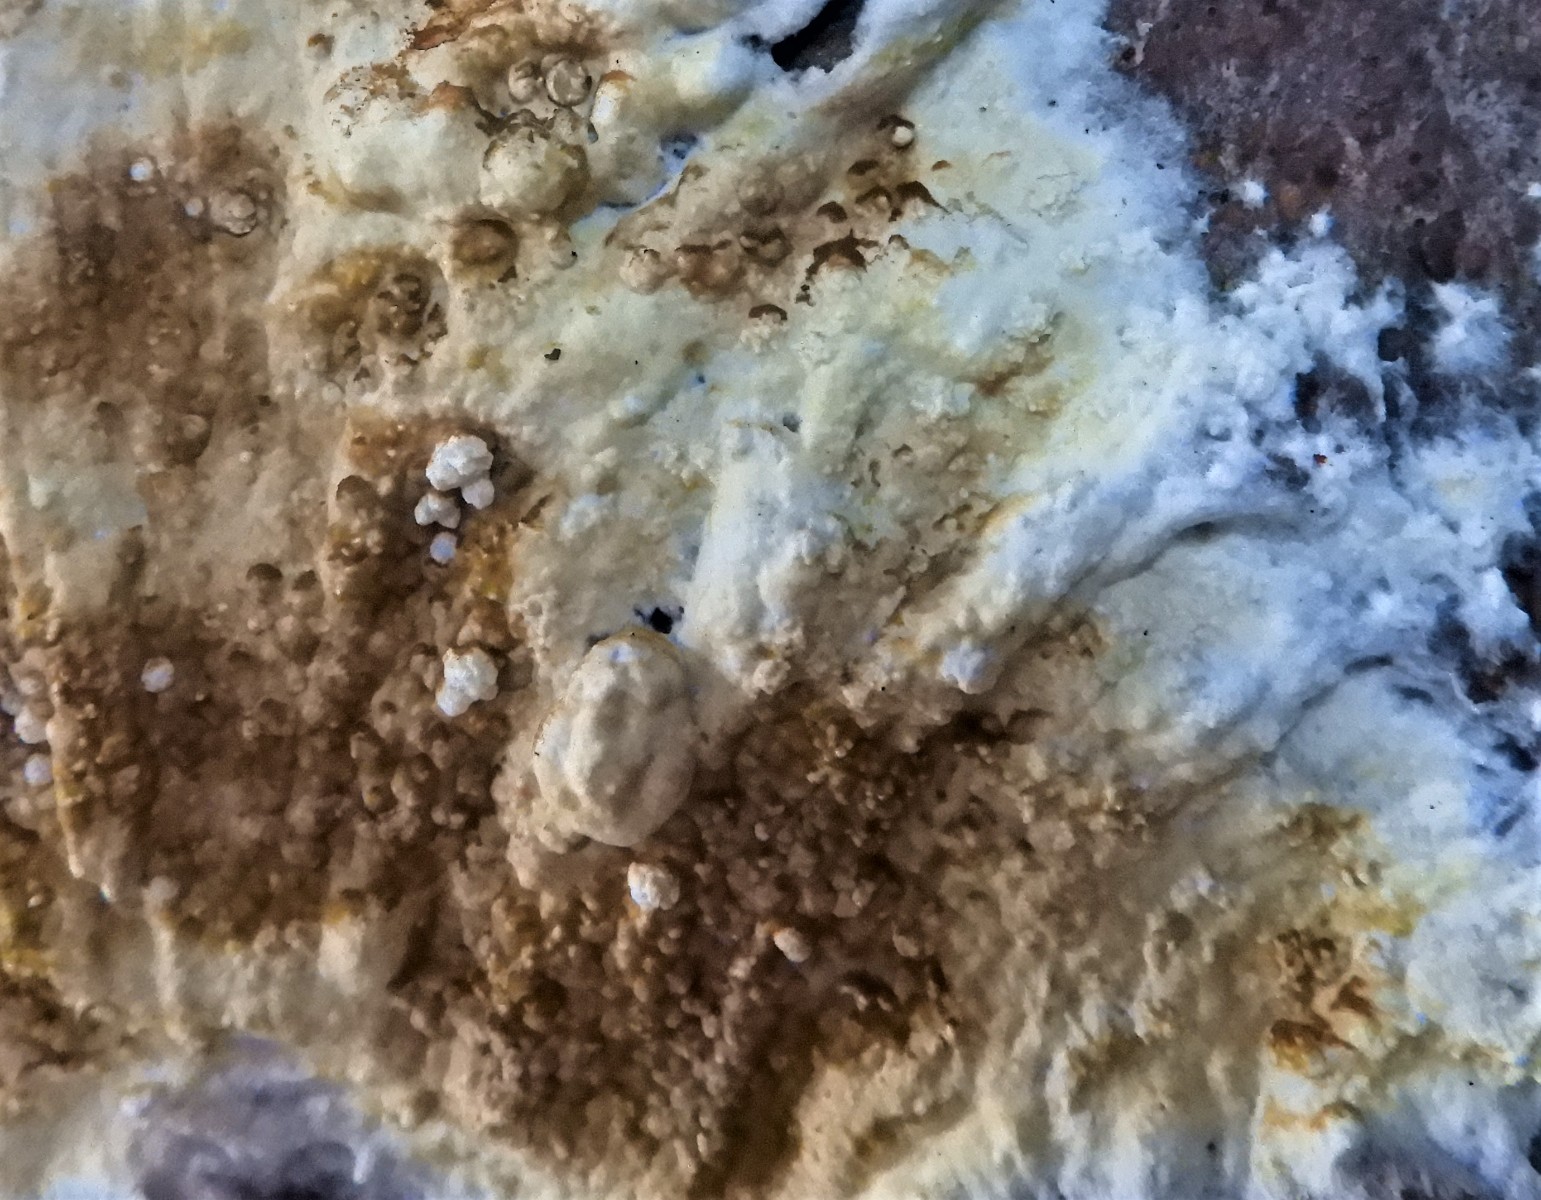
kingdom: Fungi
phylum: Ascomycota
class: Sordariomycetes
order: Xylariales
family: Hypoxylaceae
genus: Nodulisporium
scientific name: Nodulisporium cecidiogenes
